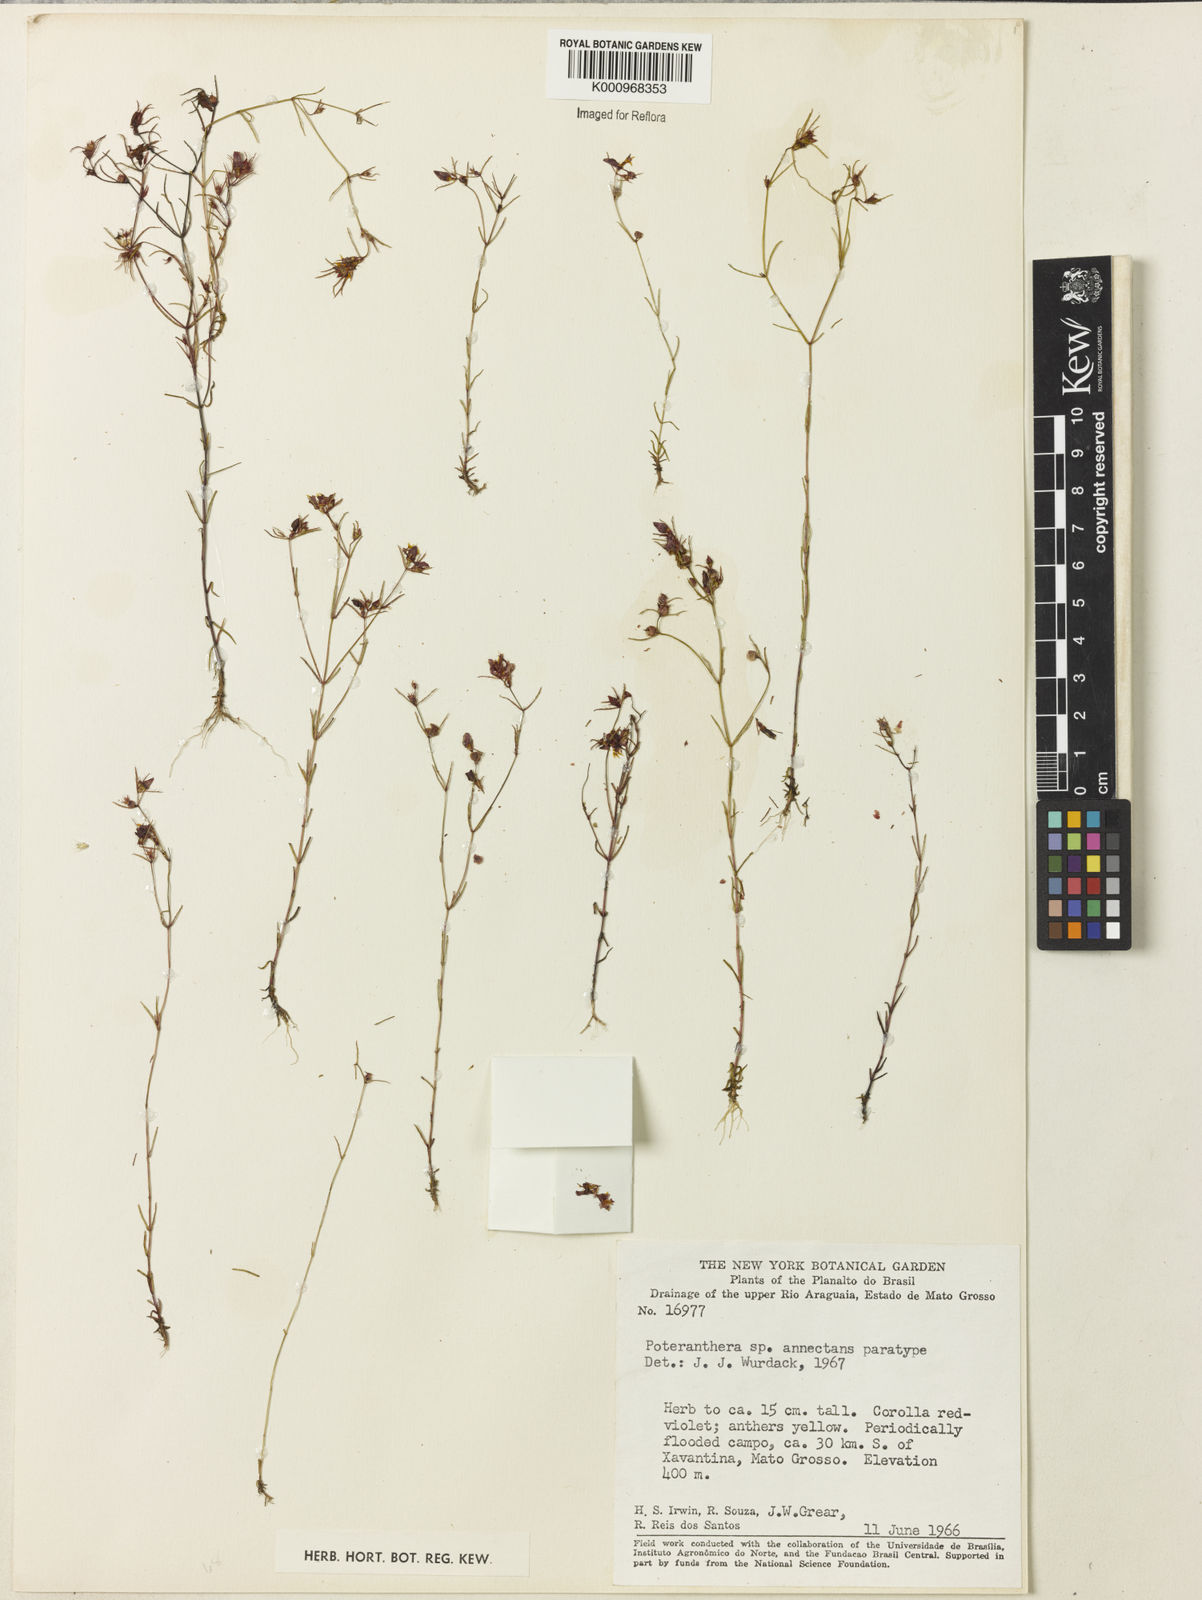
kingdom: Plantae
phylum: Tracheophyta
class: Magnoliopsida
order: Myrtales
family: Melastomataceae
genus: Poteranthera
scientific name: Poteranthera annectans
